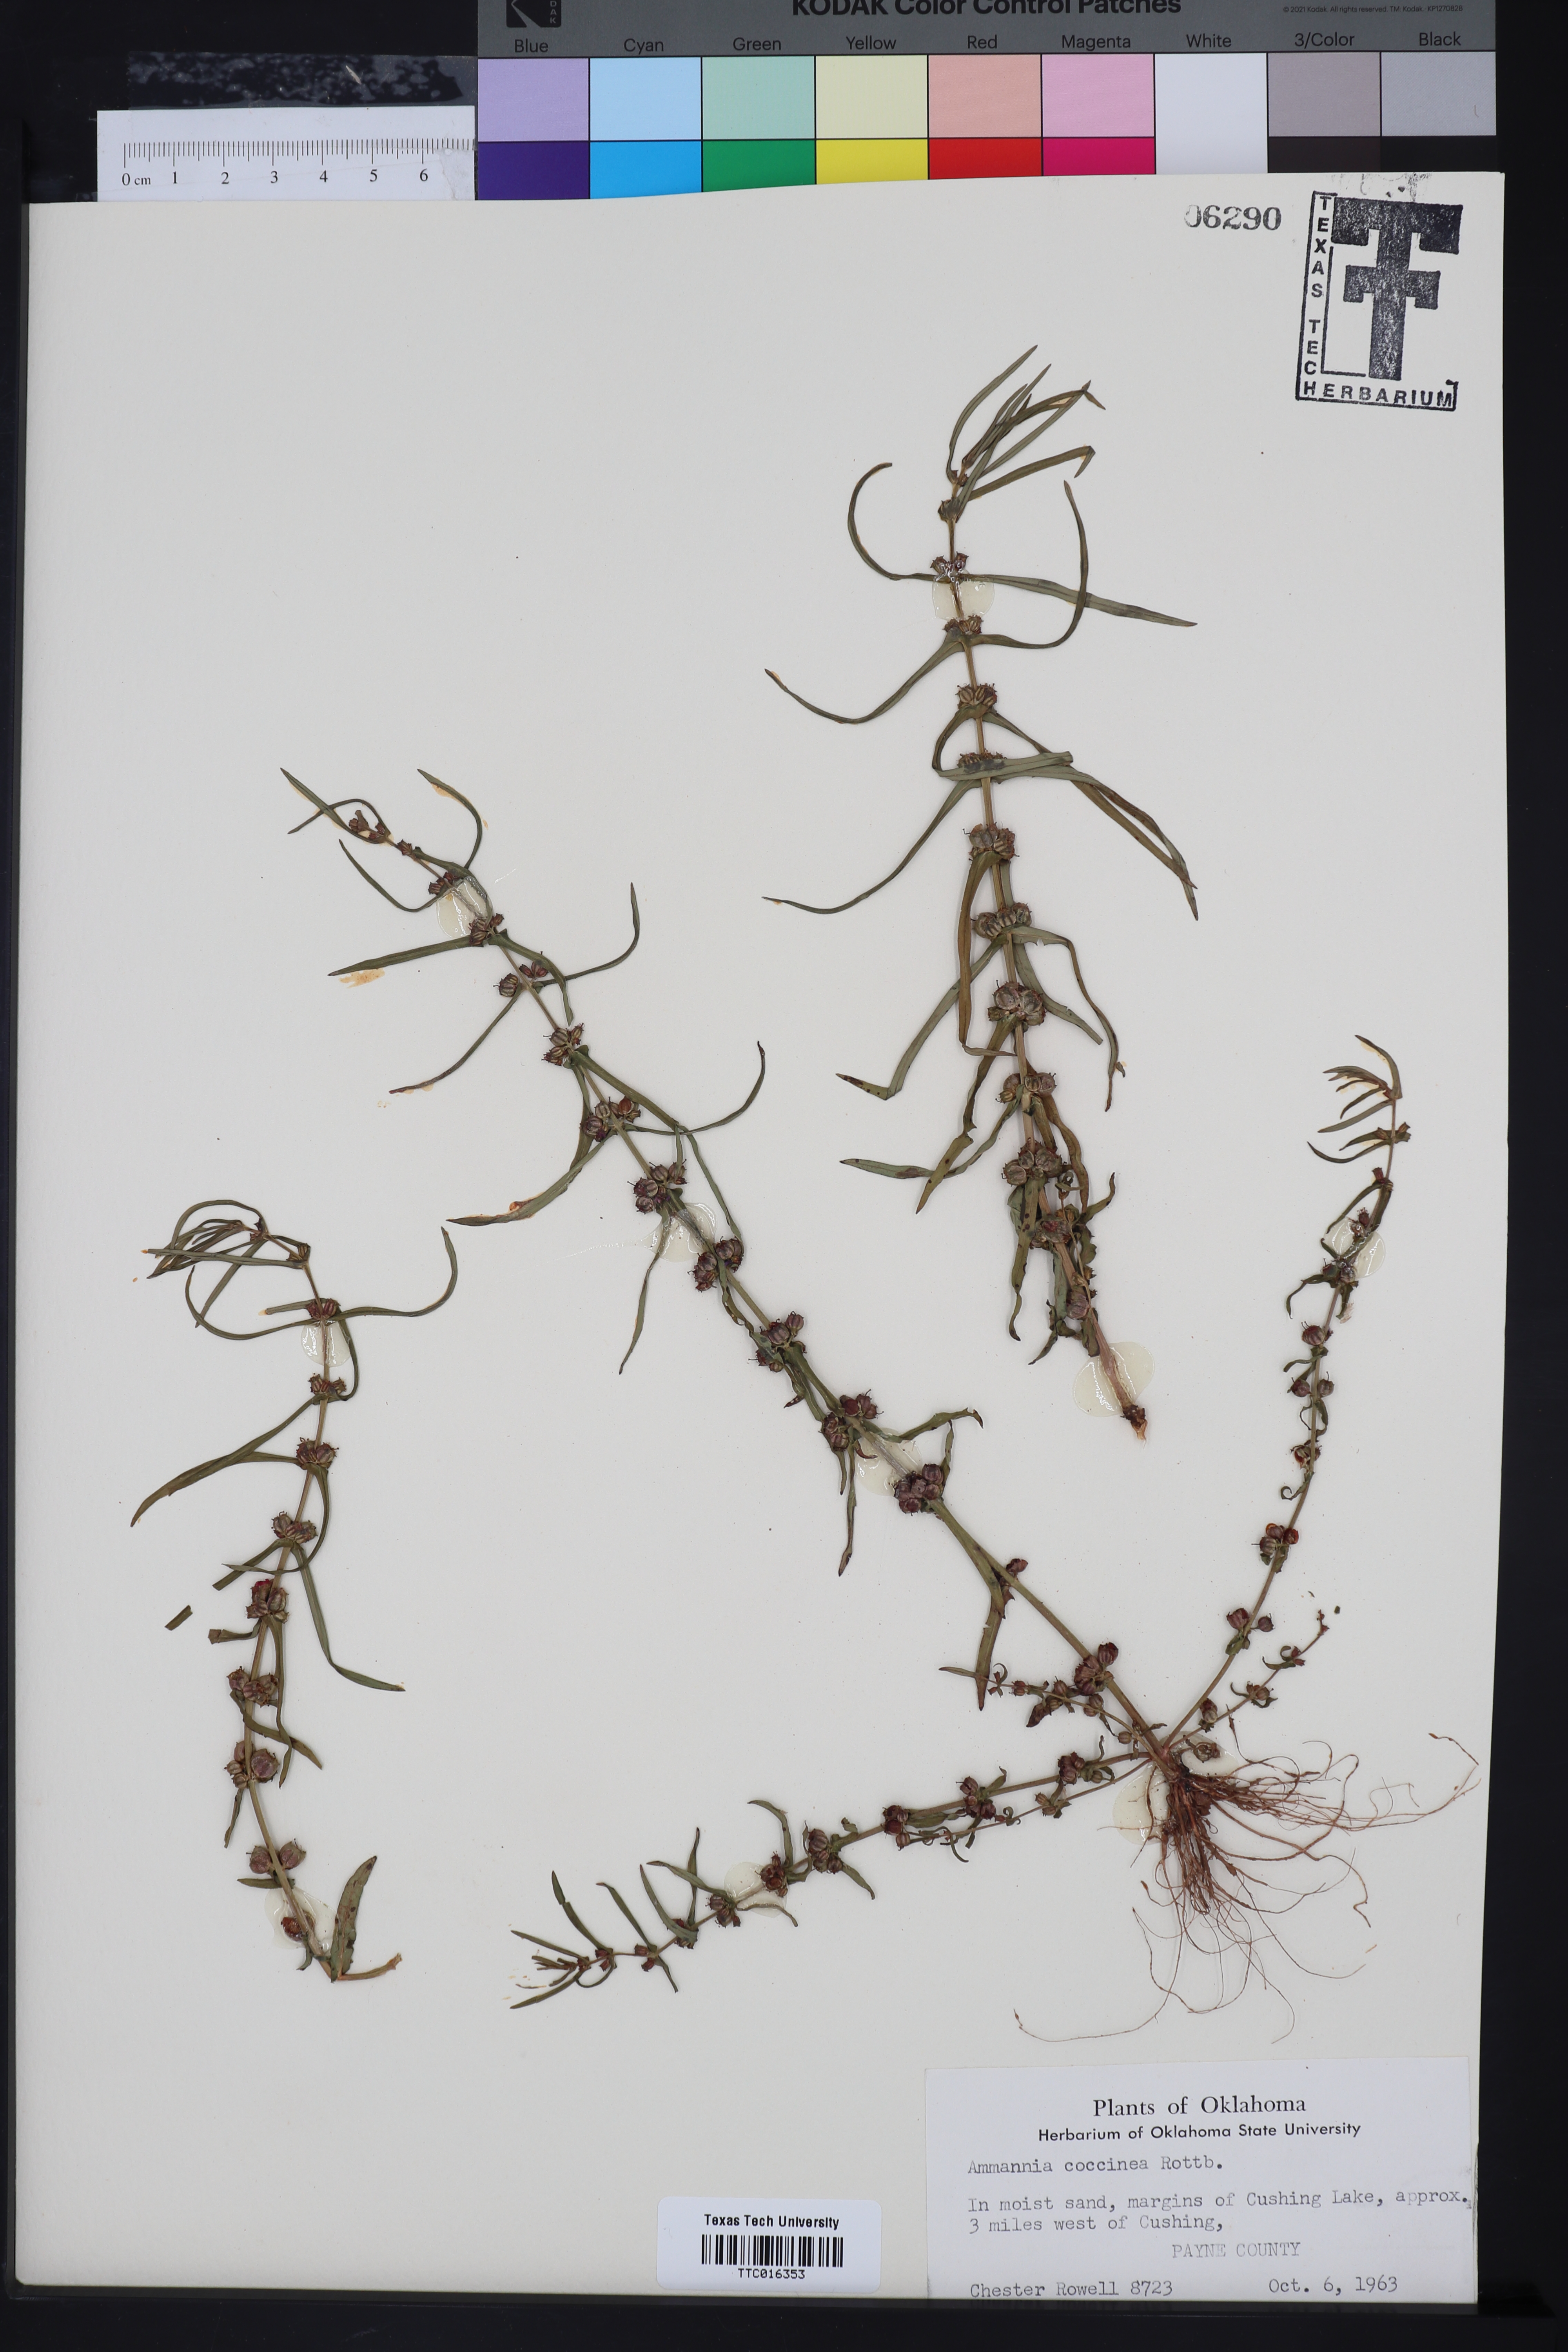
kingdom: Plantae
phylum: Tracheophyta
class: Magnoliopsida
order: Myrtales
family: Lythraceae
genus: Ammannia
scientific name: Ammannia coccinea
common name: Valley redstem
